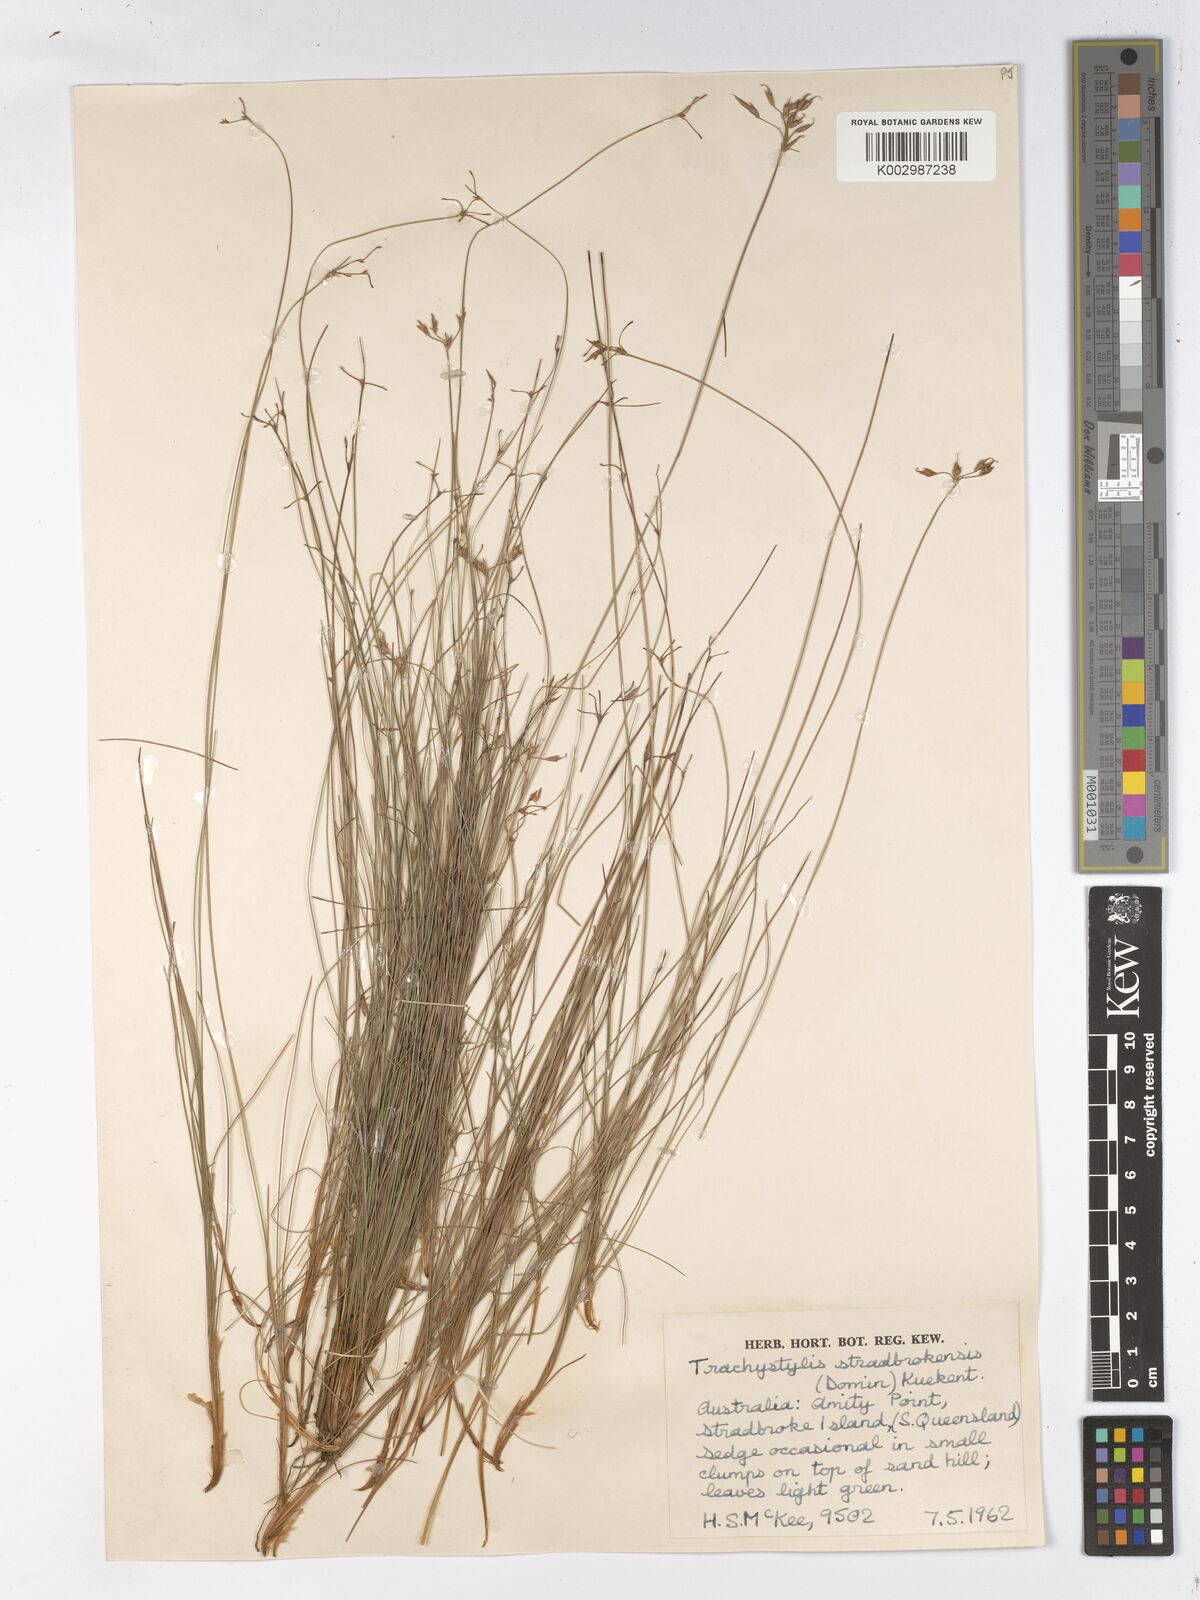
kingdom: Plantae
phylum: Tracheophyta
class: Liliopsida
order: Poales
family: Cyperaceae
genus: Trachystylis
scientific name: Trachystylis stradbrokensis
